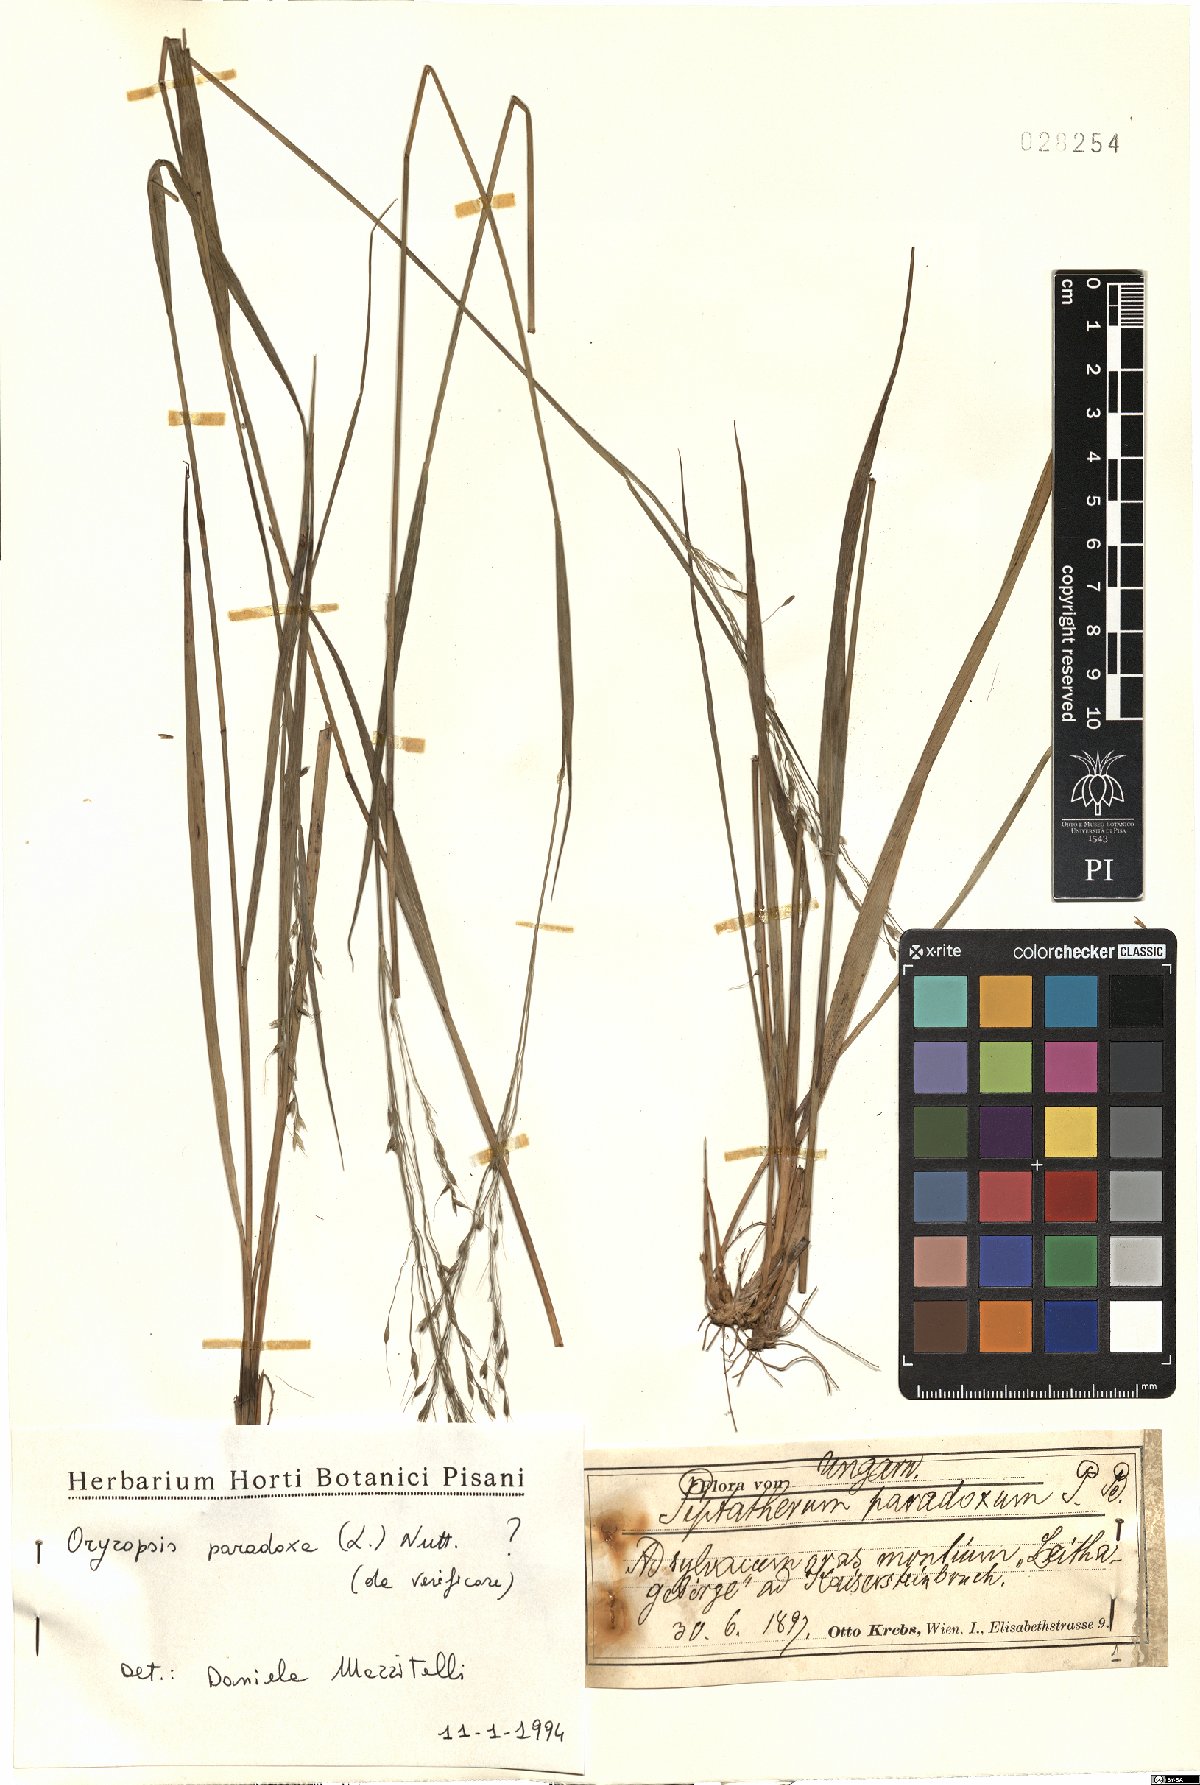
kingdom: Plantae
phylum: Tracheophyta
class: Liliopsida
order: Poales
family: Poaceae
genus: Achnatherum
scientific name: Achnatherum paradoxum
